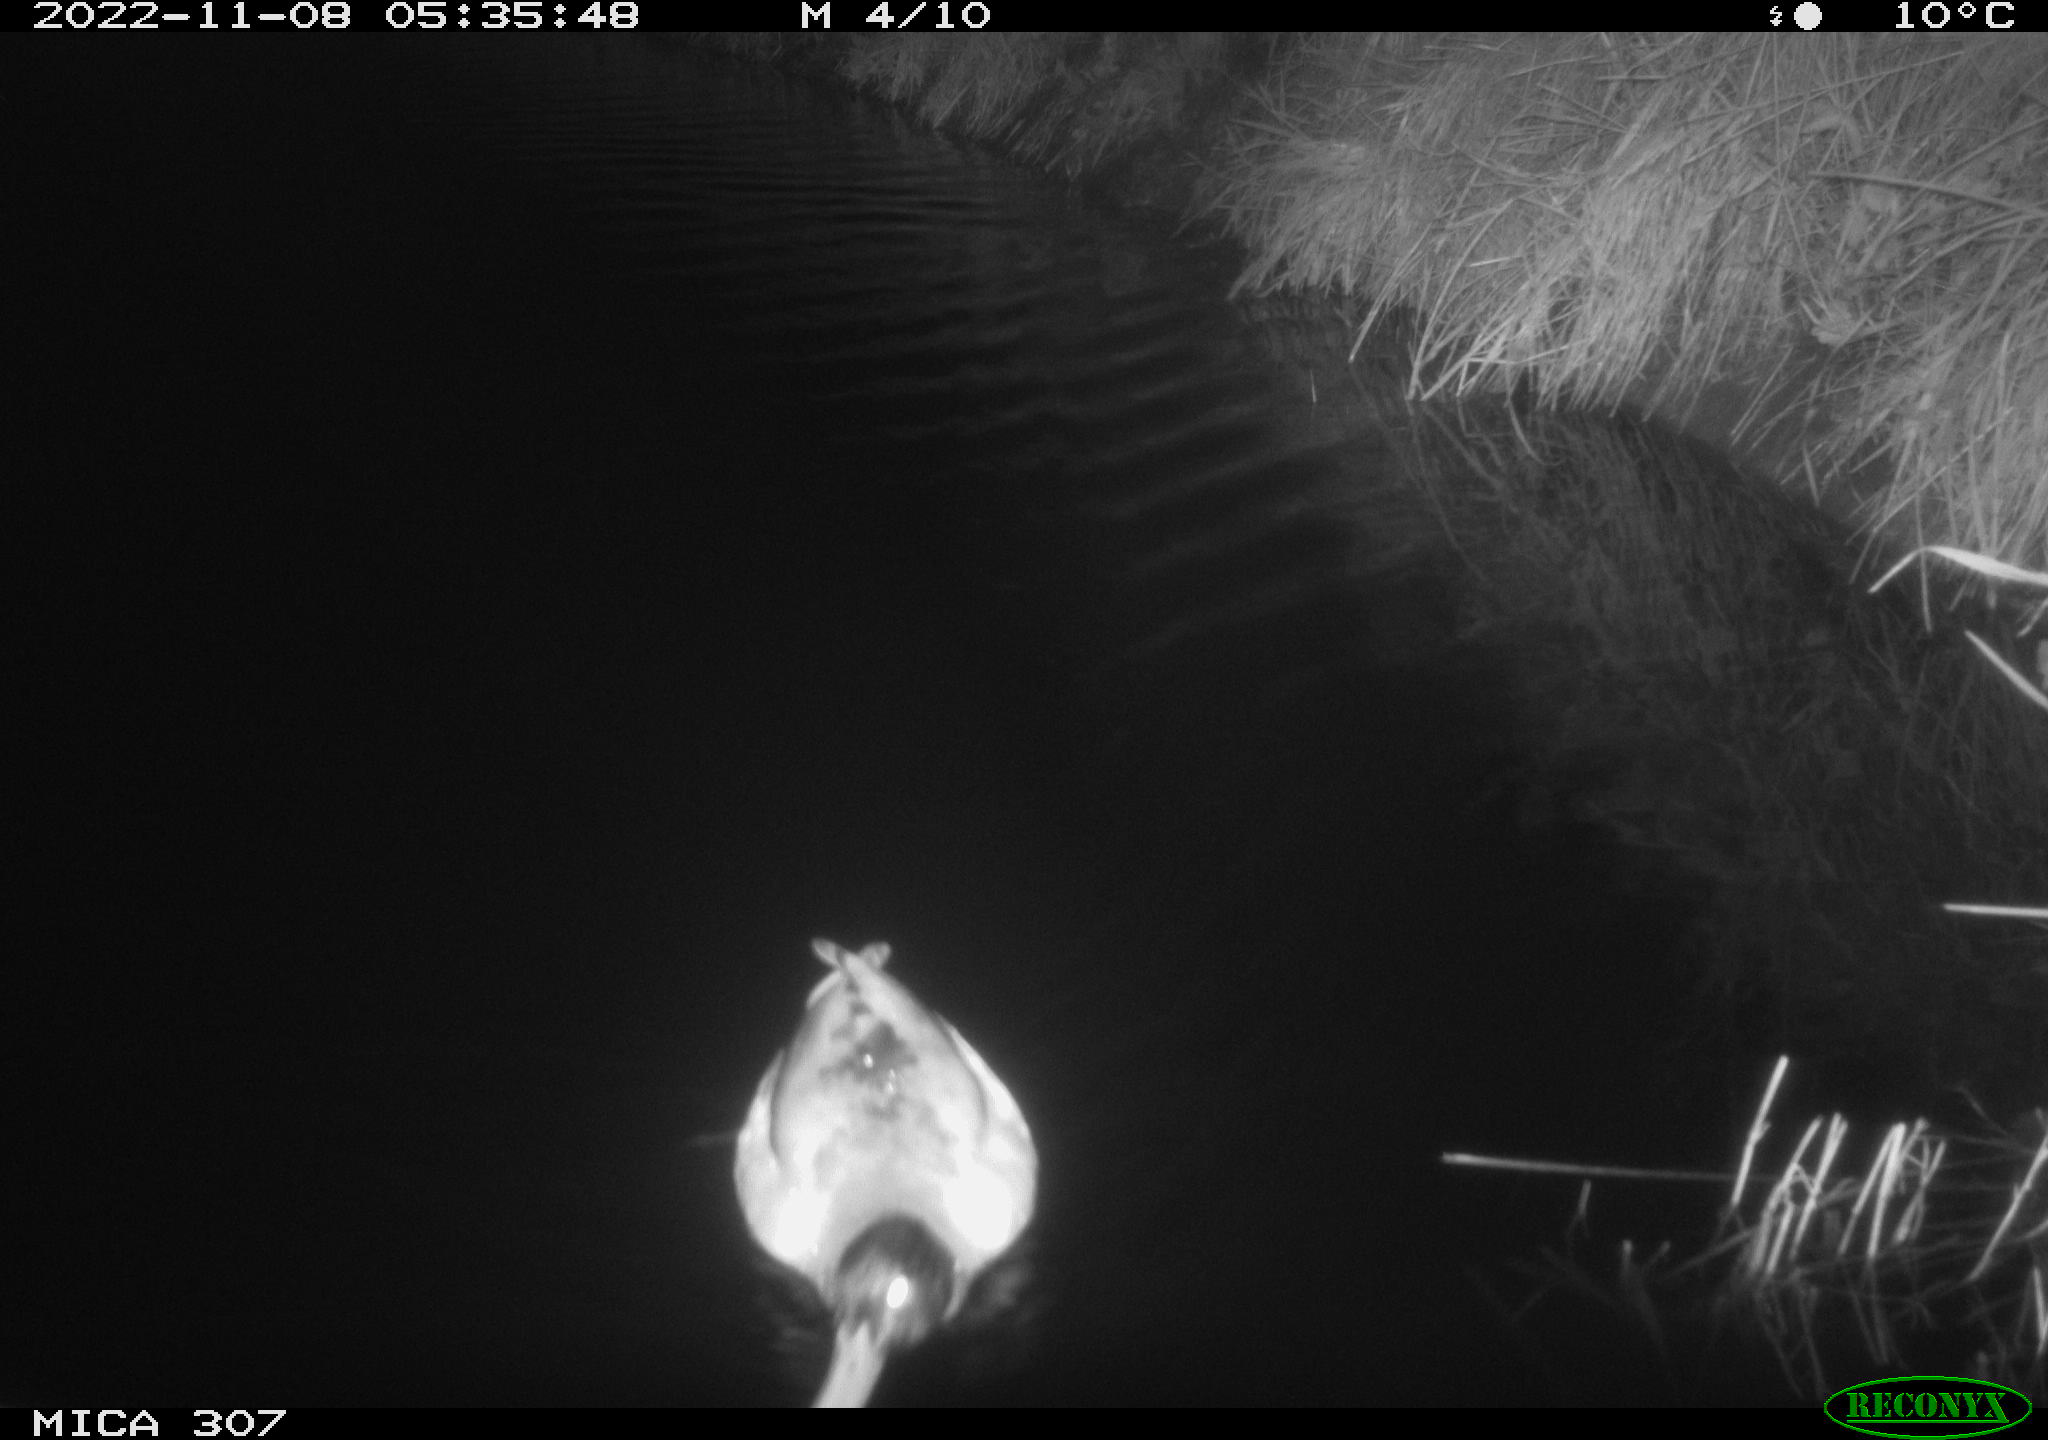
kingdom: Animalia
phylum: Chordata
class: Aves
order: Anseriformes
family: Anatidae
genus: Anas
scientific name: Anas
